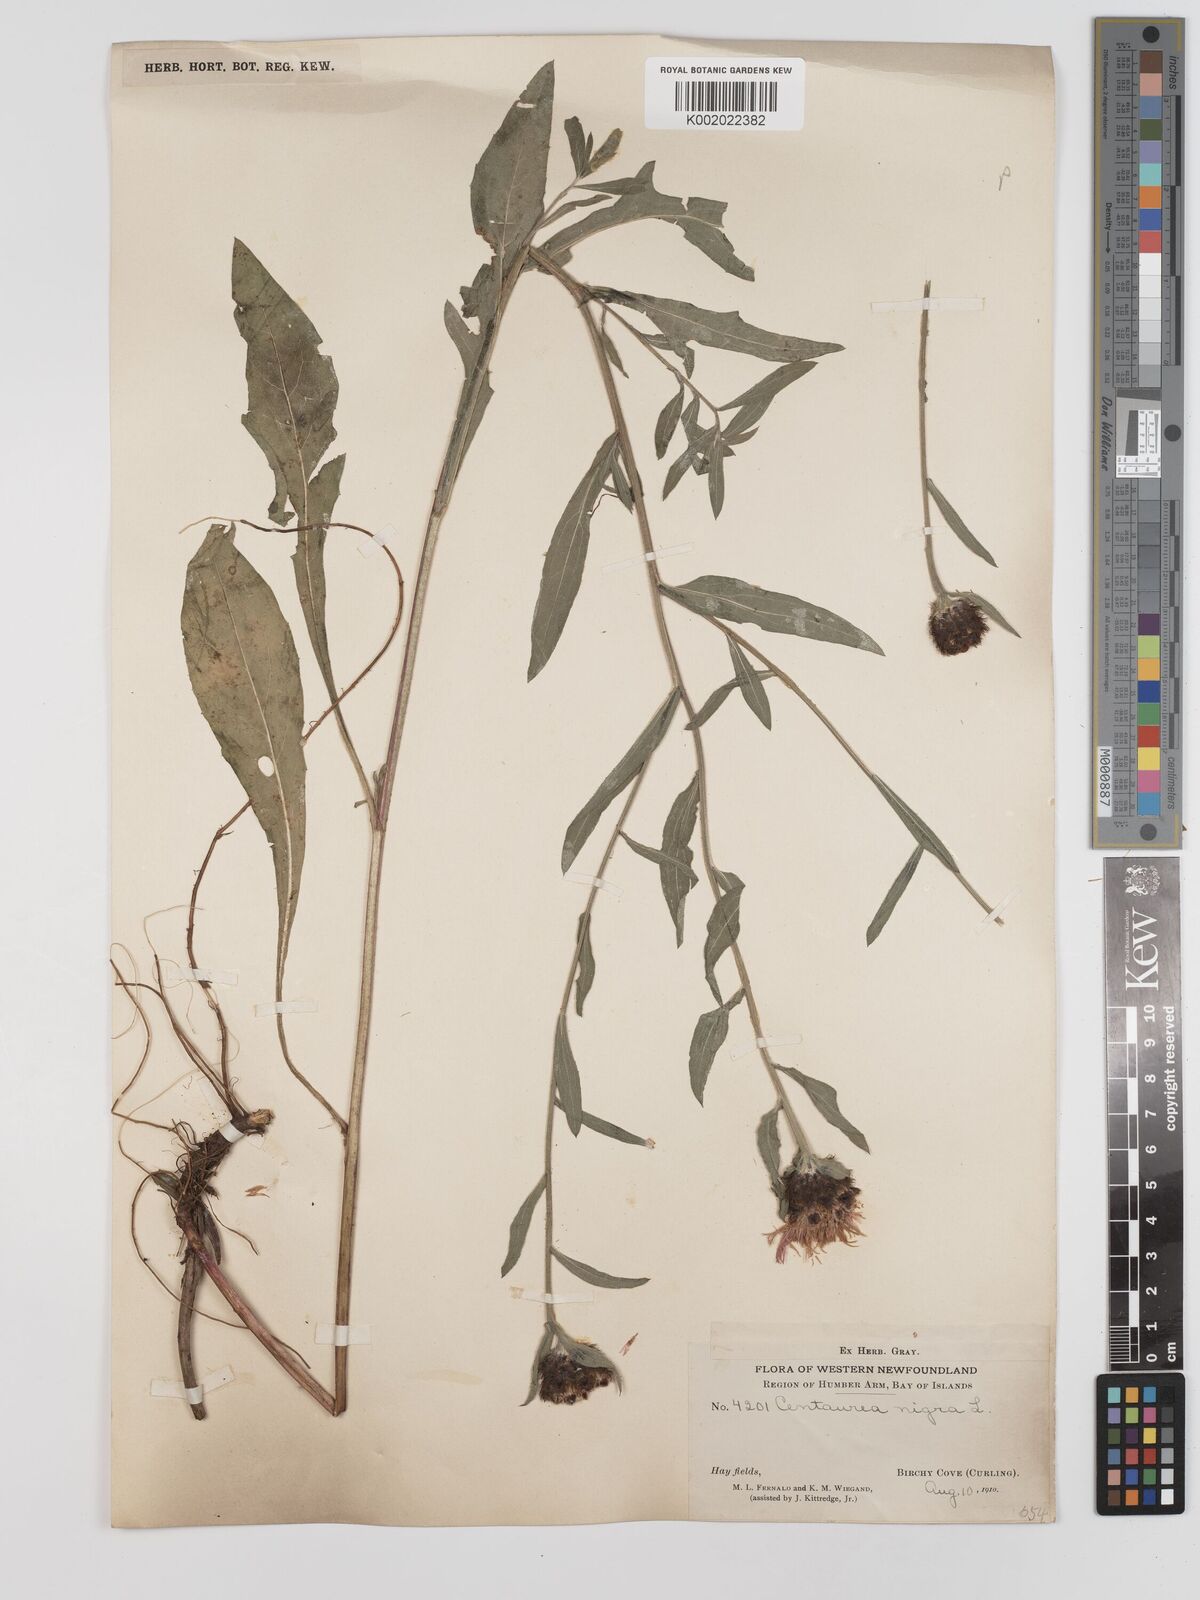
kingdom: Plantae
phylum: Tracheophyta
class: Magnoliopsida
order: Asterales
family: Asteraceae
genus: Centaurea
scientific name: Centaurea nigra
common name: Lesser knapweed
